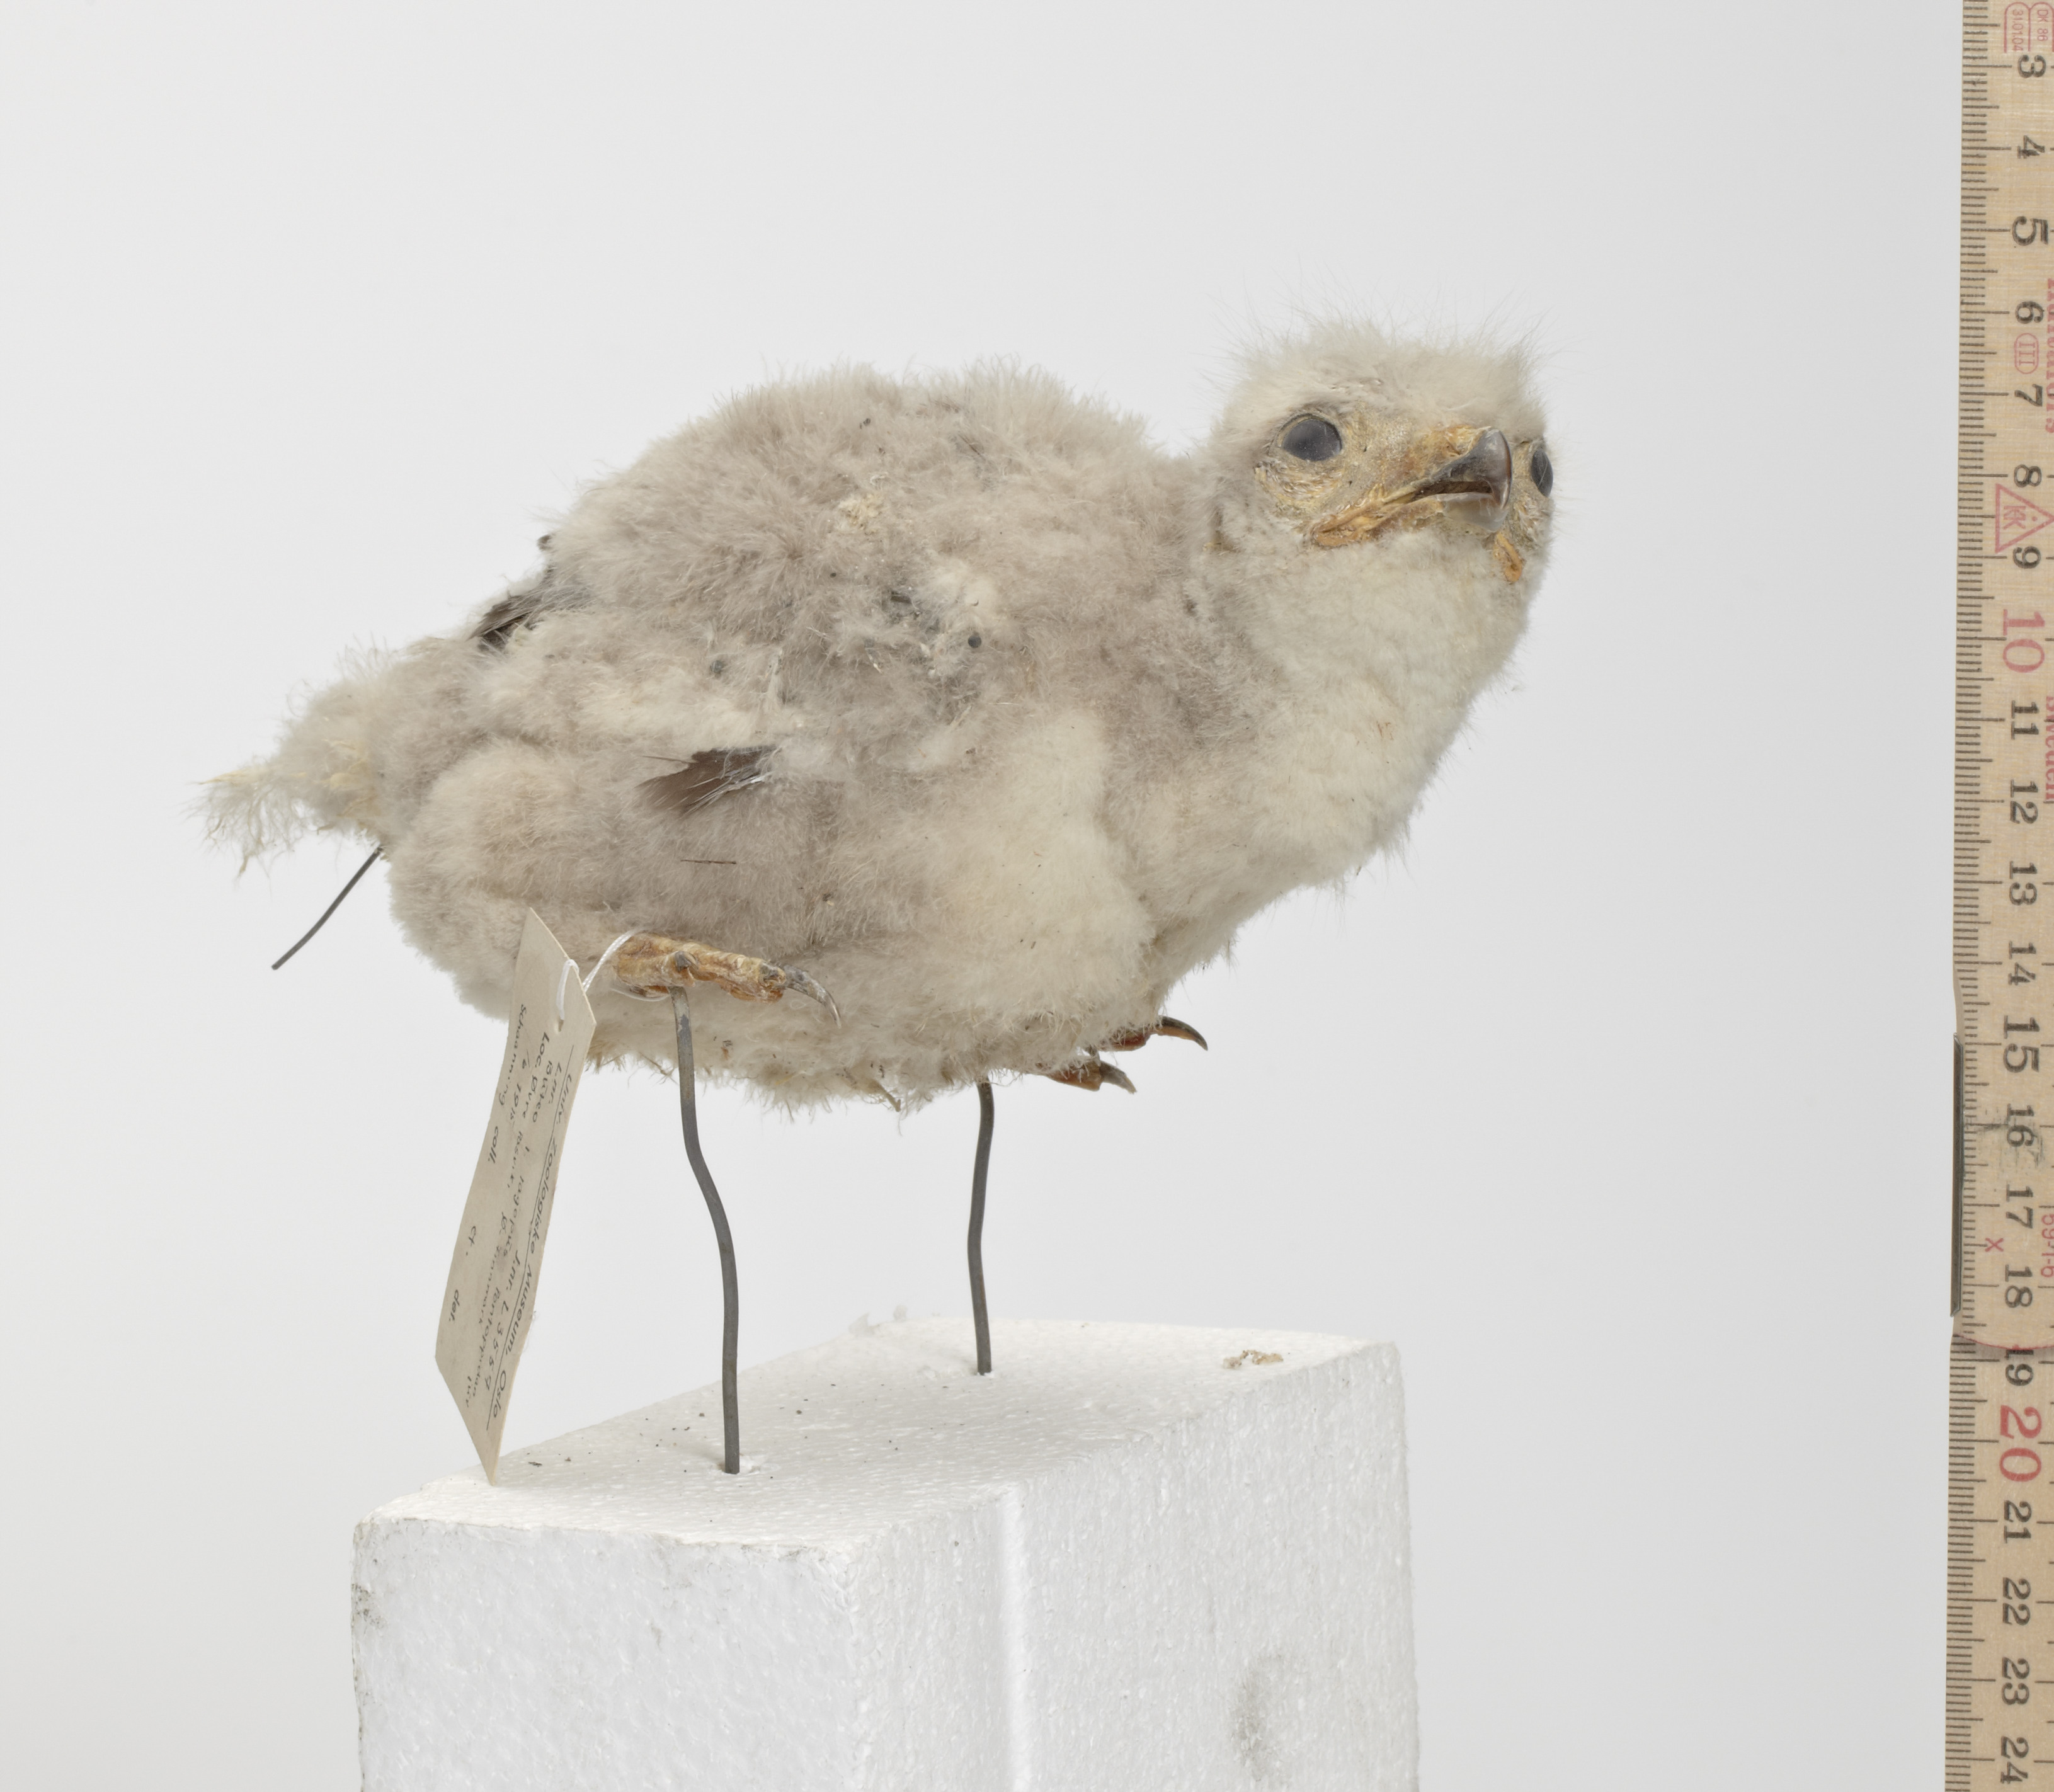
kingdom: Animalia
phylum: Chordata
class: Aves
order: Accipitriformes
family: Accipitridae
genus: Buteo
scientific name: Buteo lagopus
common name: Rough-legged buzzard
